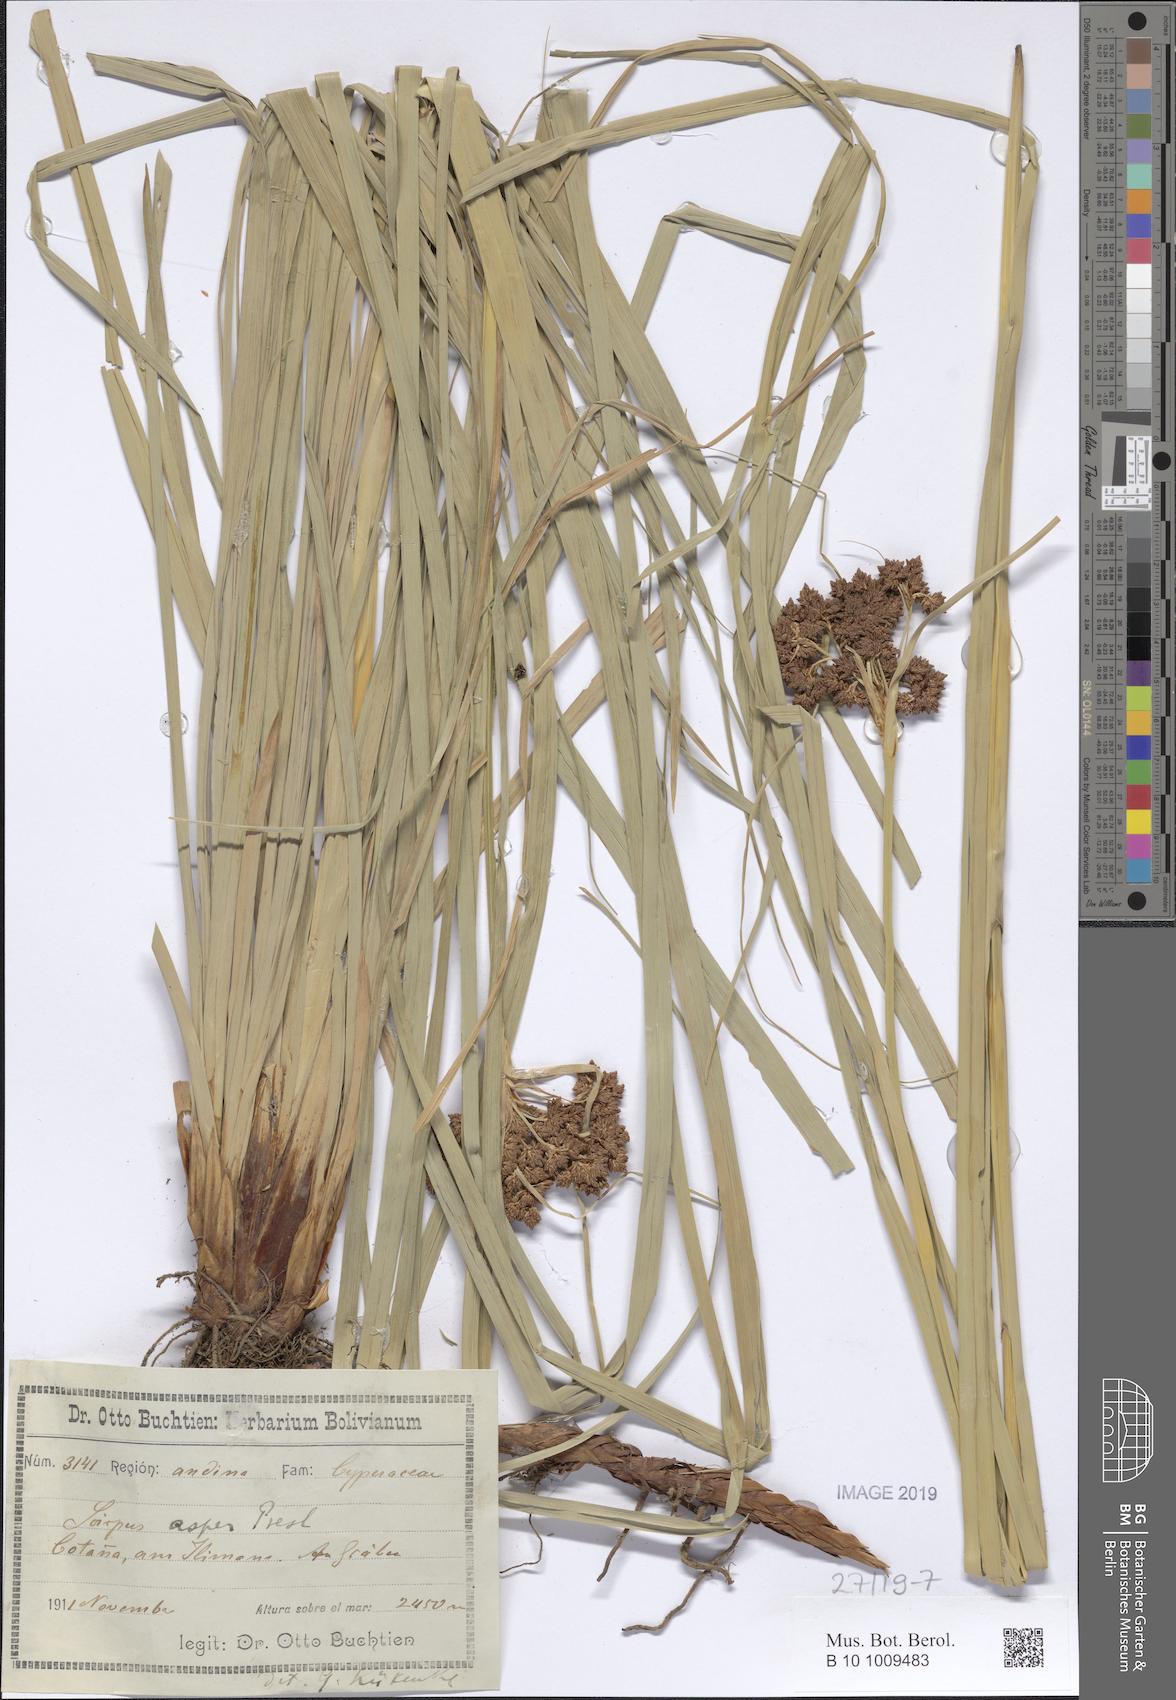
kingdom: Plantae
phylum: Tracheophyta
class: Liliopsida
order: Poales
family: Cyperaceae
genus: Rhodoscirpus
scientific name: Rhodoscirpus asper
